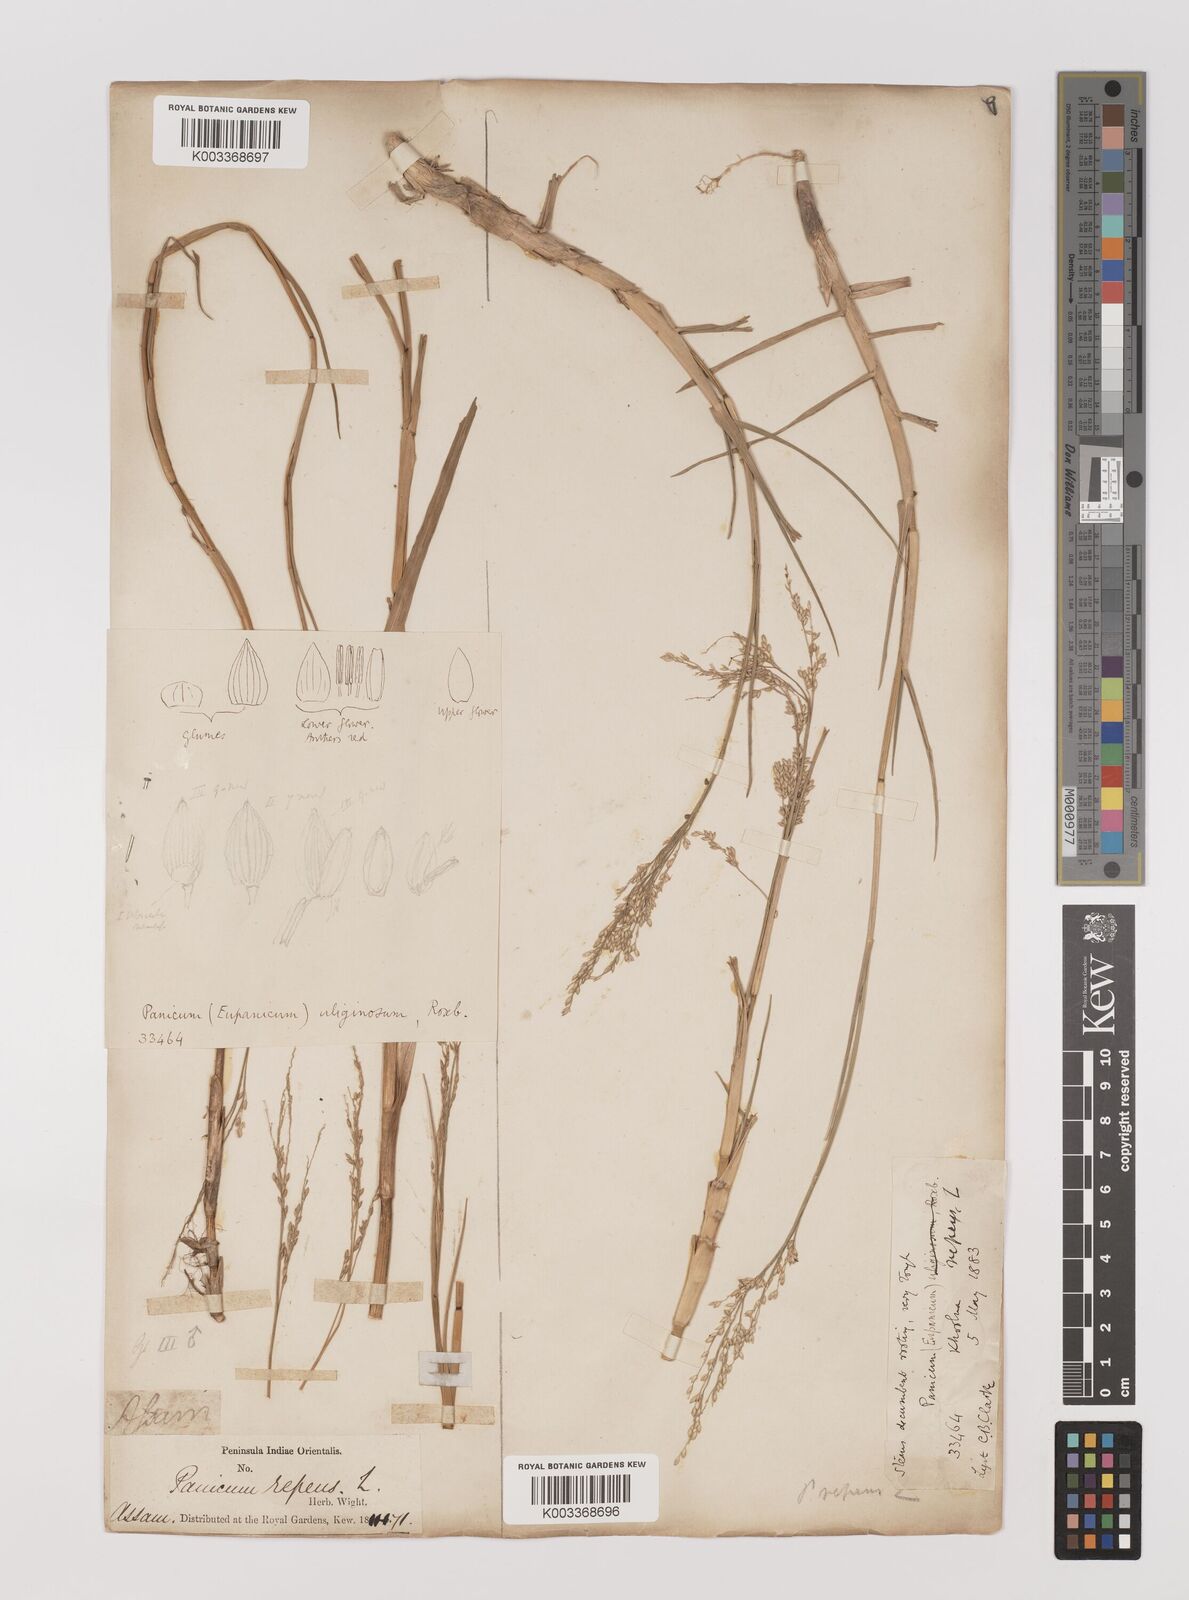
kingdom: Plantae
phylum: Tracheophyta
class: Liliopsida
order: Poales
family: Poaceae
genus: Panicum
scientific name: Panicum repens
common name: Torpedo grass
